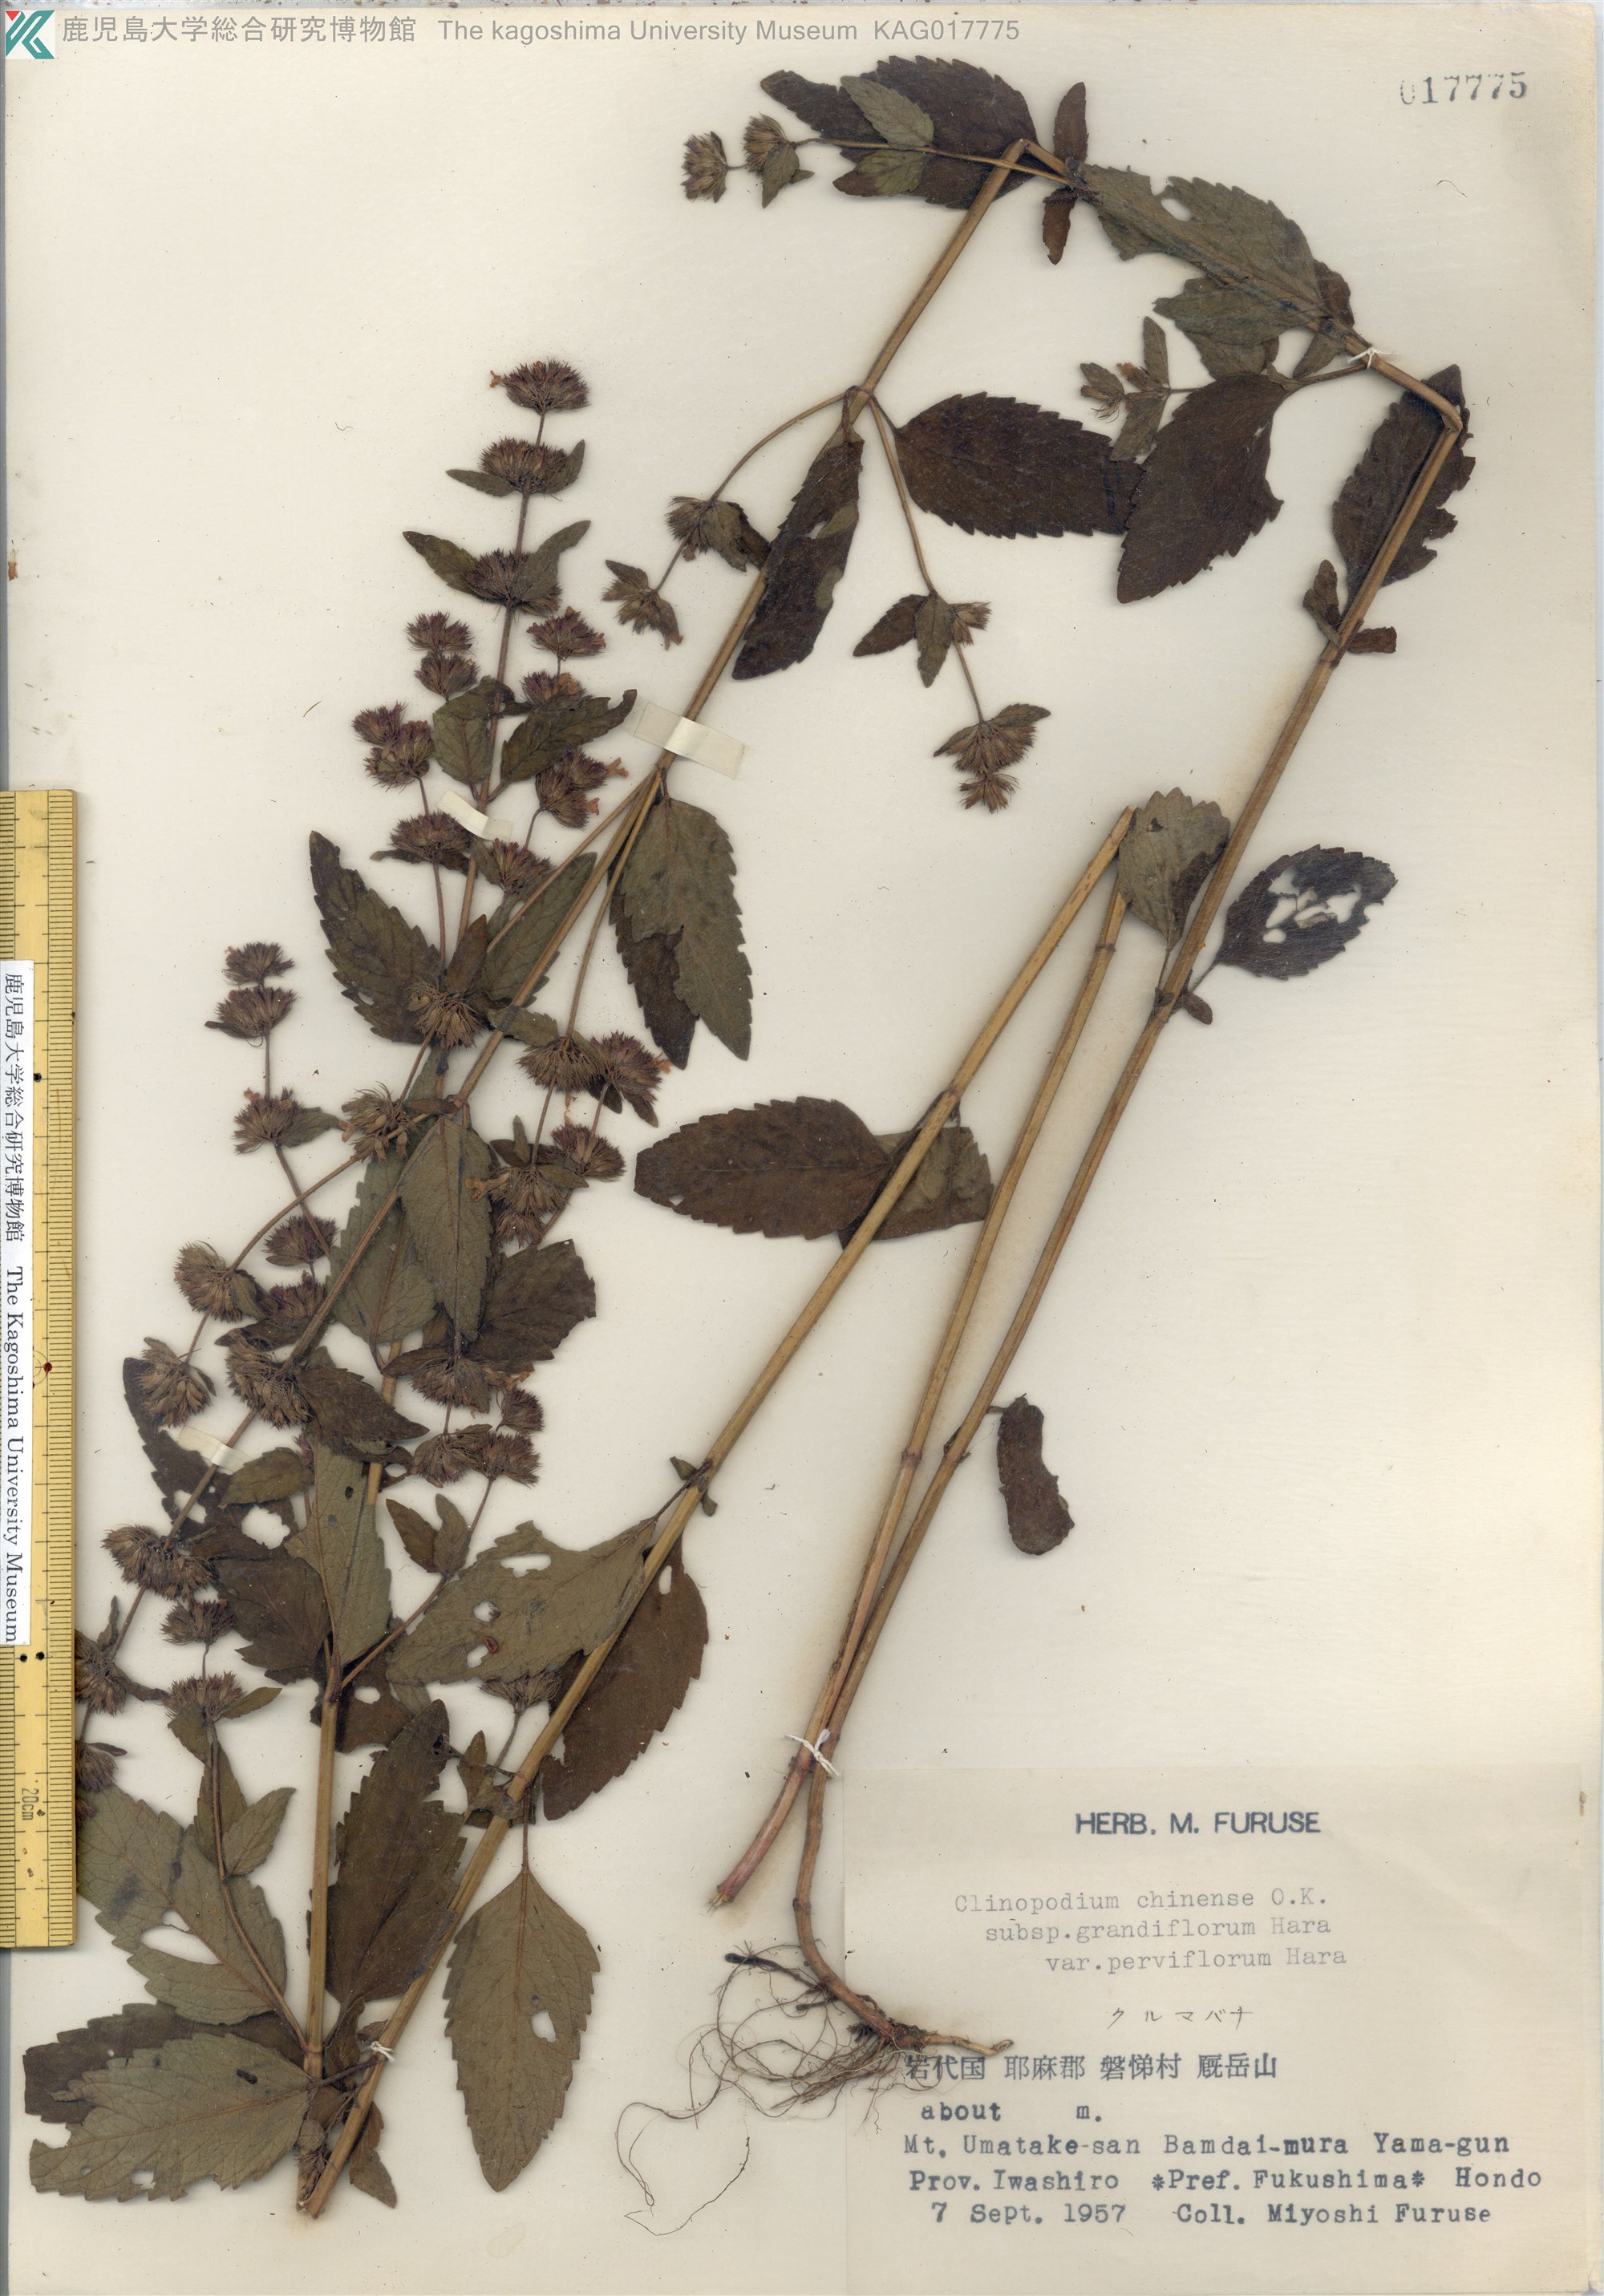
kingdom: Plantae
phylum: Tracheophyta
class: Magnoliopsida
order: Lamiales
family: Lamiaceae
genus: Clinopodium
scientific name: Clinopodium chinense
